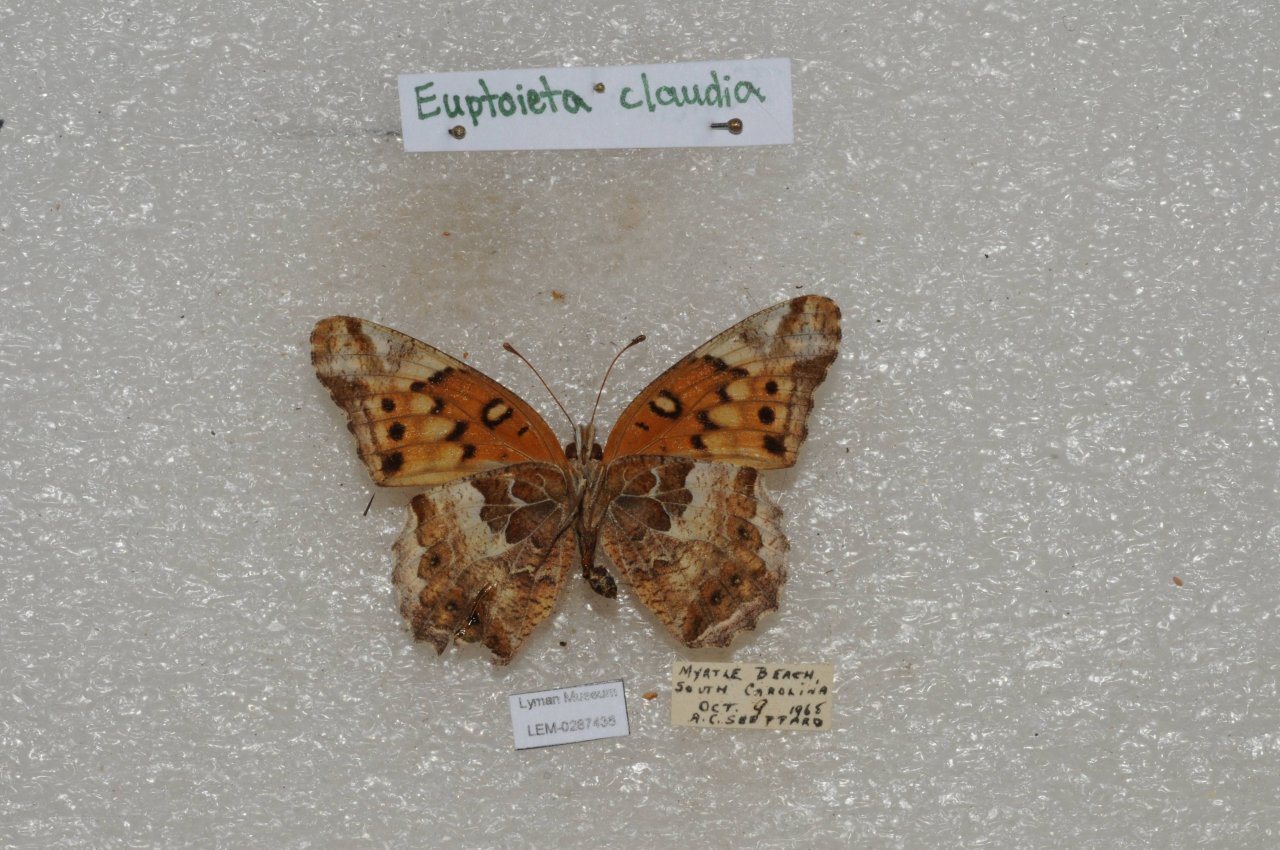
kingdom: Animalia
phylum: Arthropoda
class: Insecta
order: Lepidoptera
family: Nymphalidae
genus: Euptoieta
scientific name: Euptoieta claudia
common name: Variegated Fritillary
